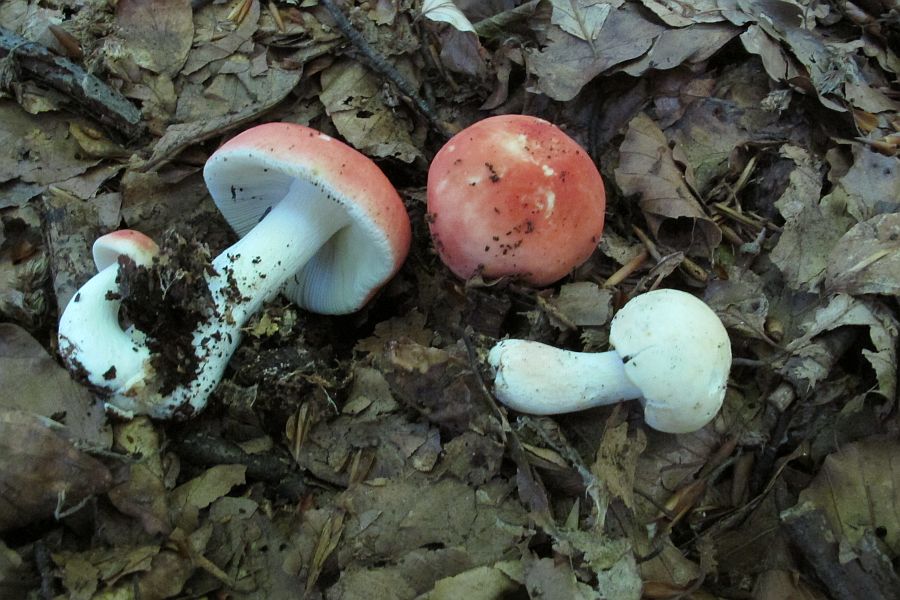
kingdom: Fungi
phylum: Basidiomycota
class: Agaricomycetes
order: Russulales
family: Russulaceae
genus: Russula
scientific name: Russula rosea
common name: fastkødet skørhat
